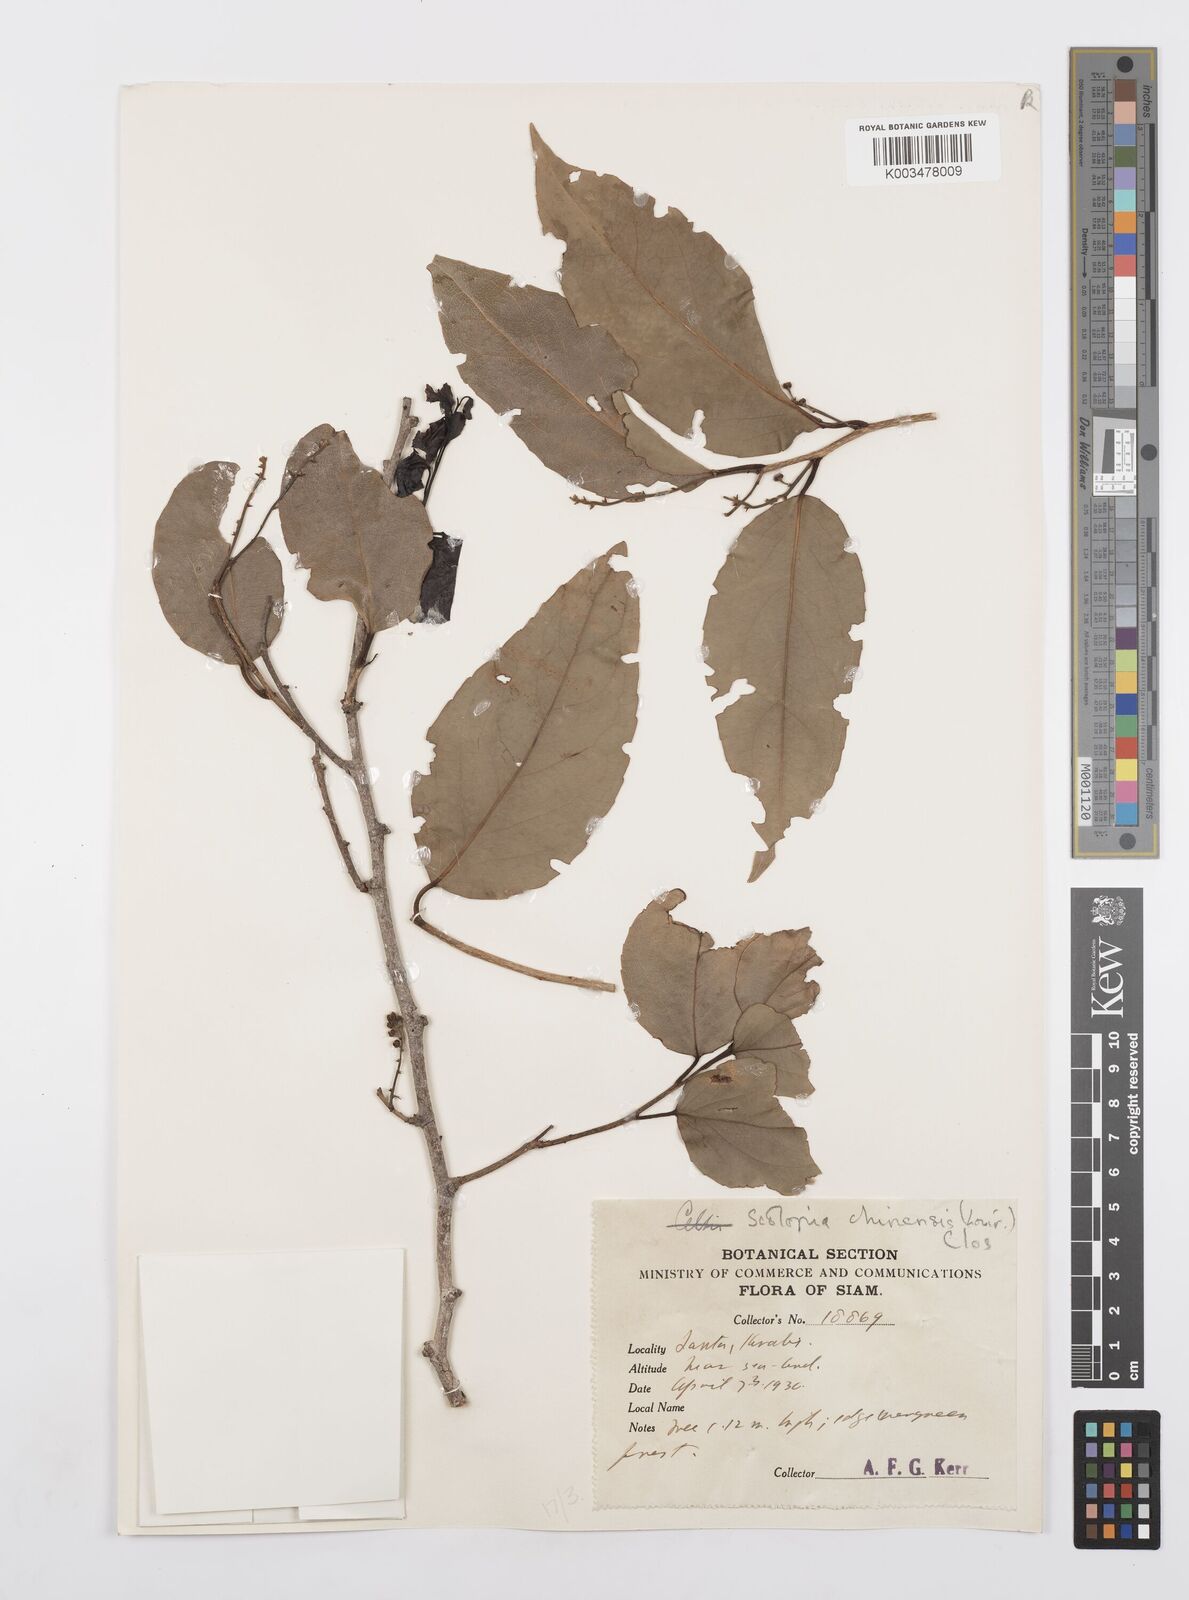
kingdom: Plantae
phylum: Tracheophyta
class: Magnoliopsida
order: Malpighiales
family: Salicaceae
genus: Scolopia
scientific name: Scolopia chinensis
